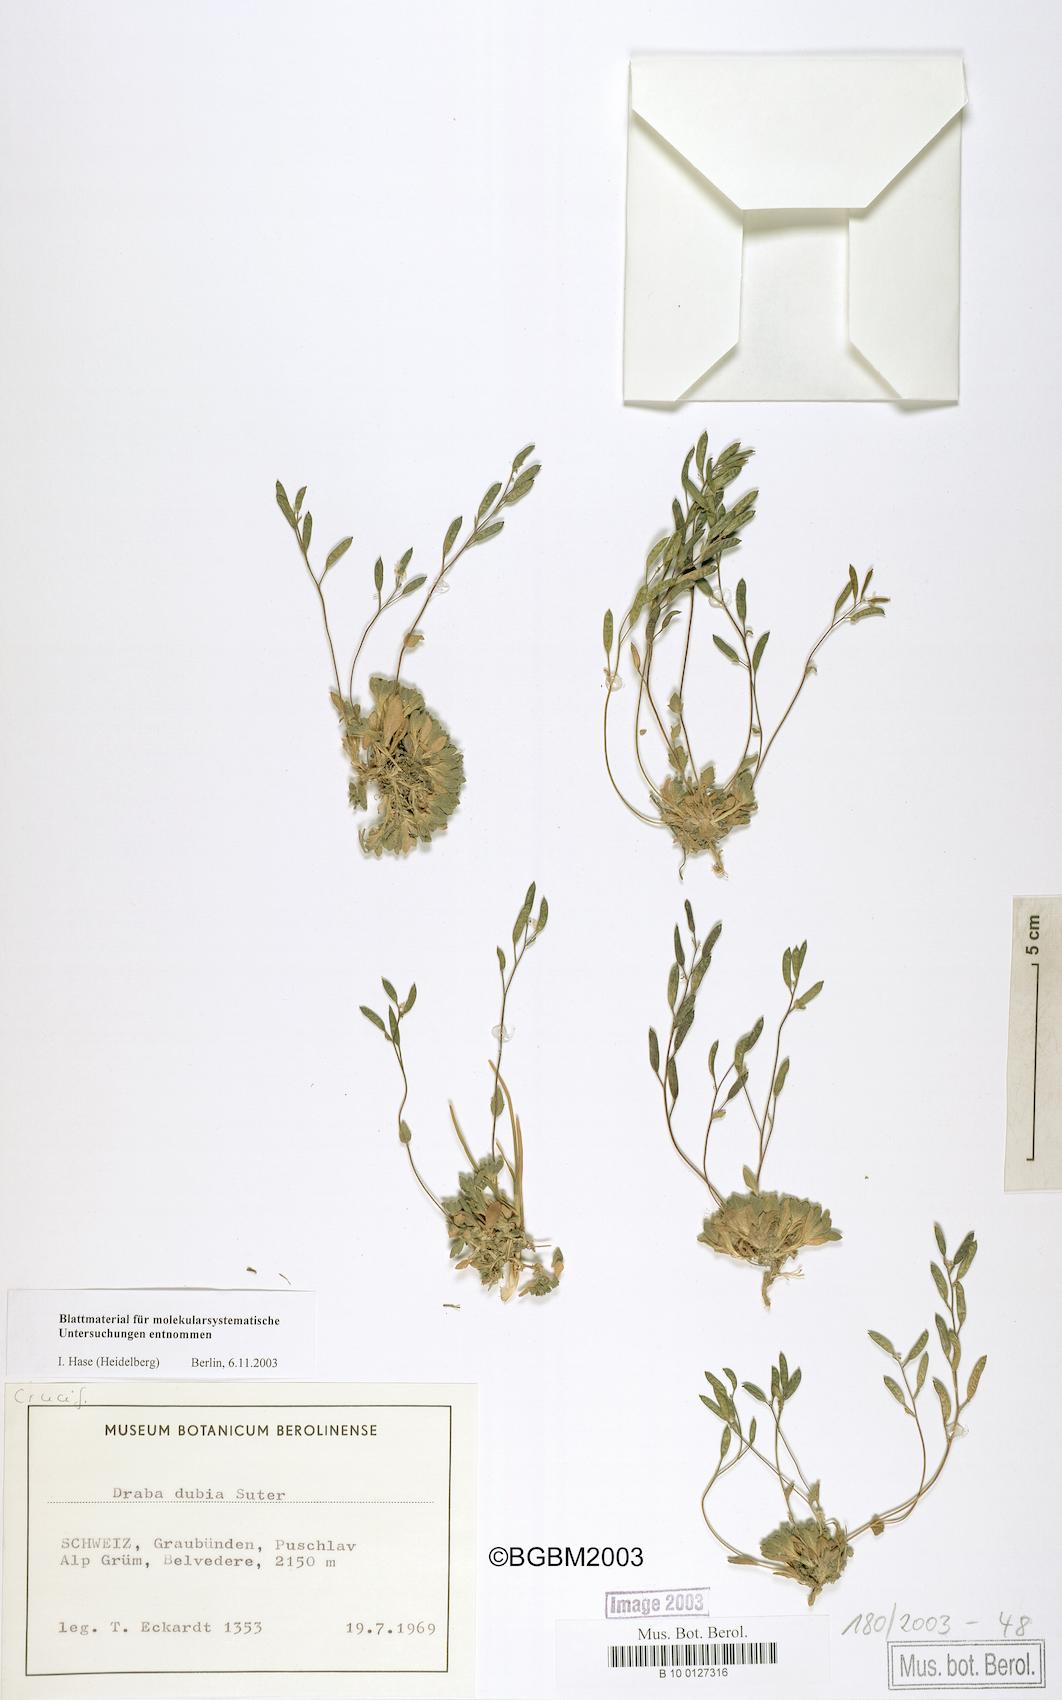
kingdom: Plantae
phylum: Tracheophyta
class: Magnoliopsida
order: Brassicales
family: Brassicaceae
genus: Draba
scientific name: Draba dubia
